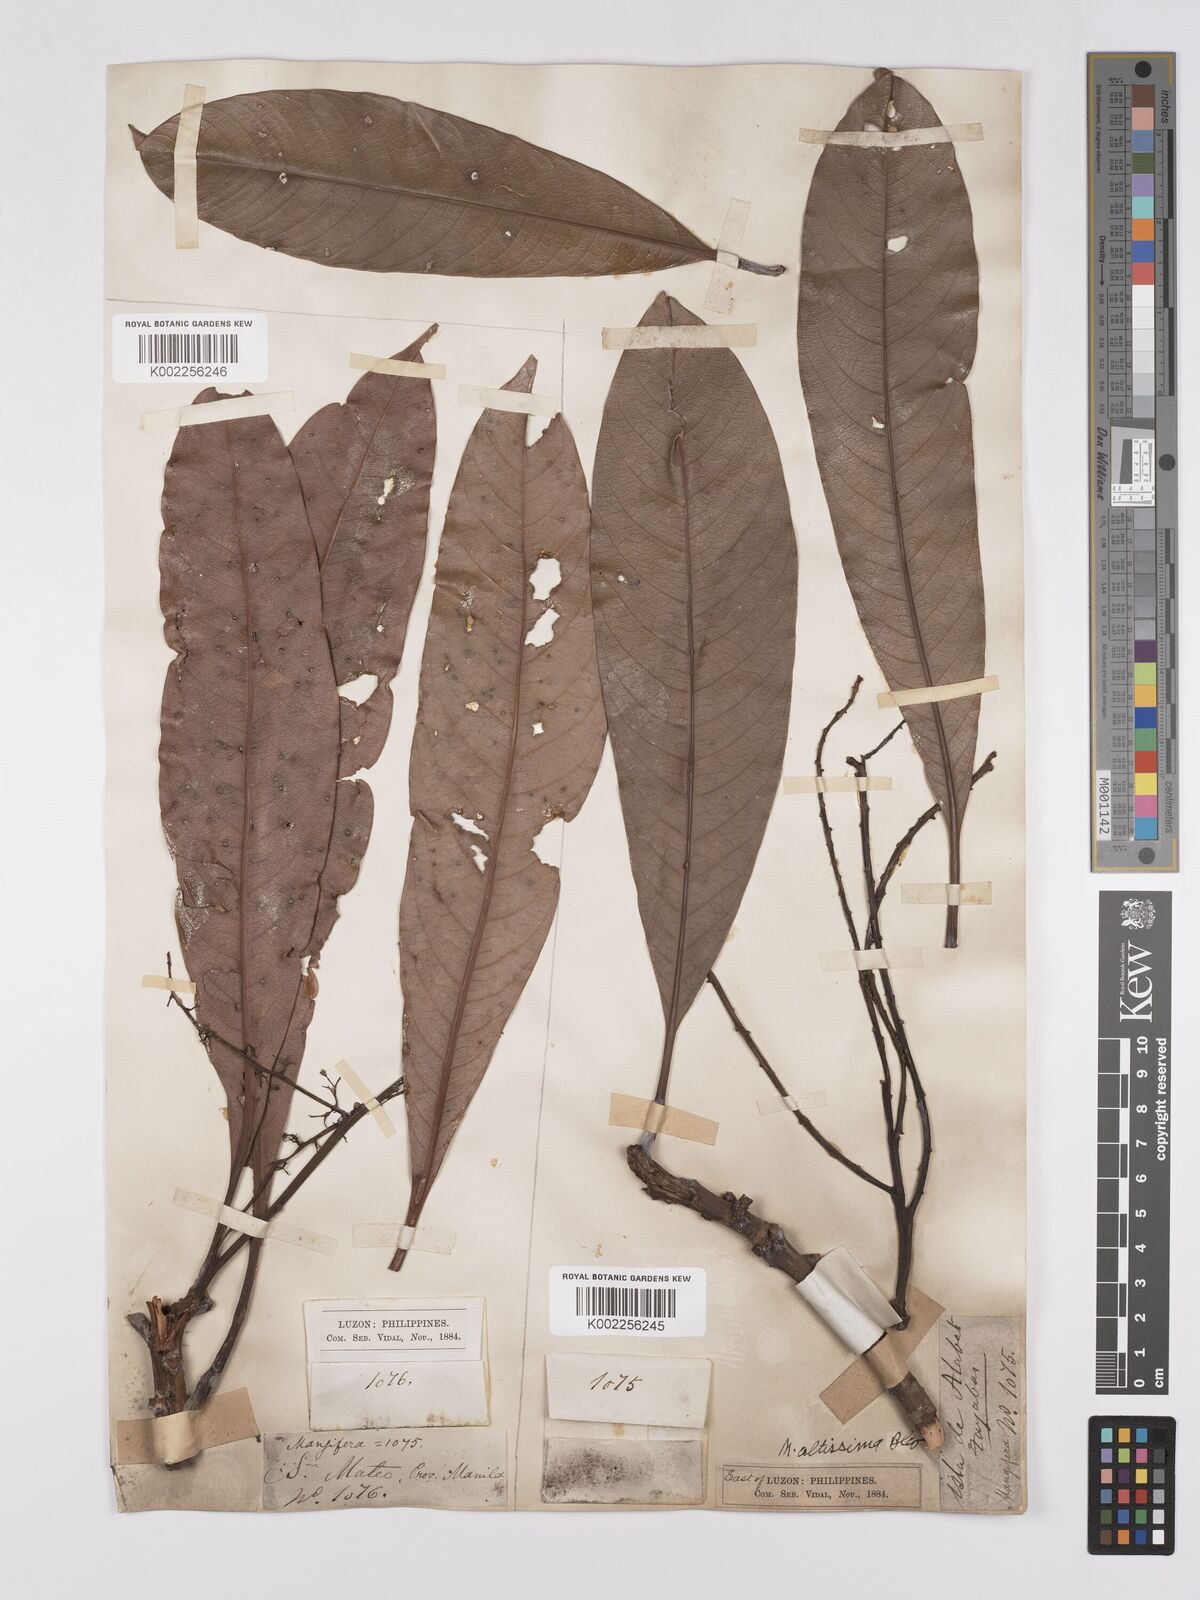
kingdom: Plantae
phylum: Tracheophyta
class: Magnoliopsida
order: Sapindales
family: Anacardiaceae
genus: Mangifera
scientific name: Mangifera altissima
